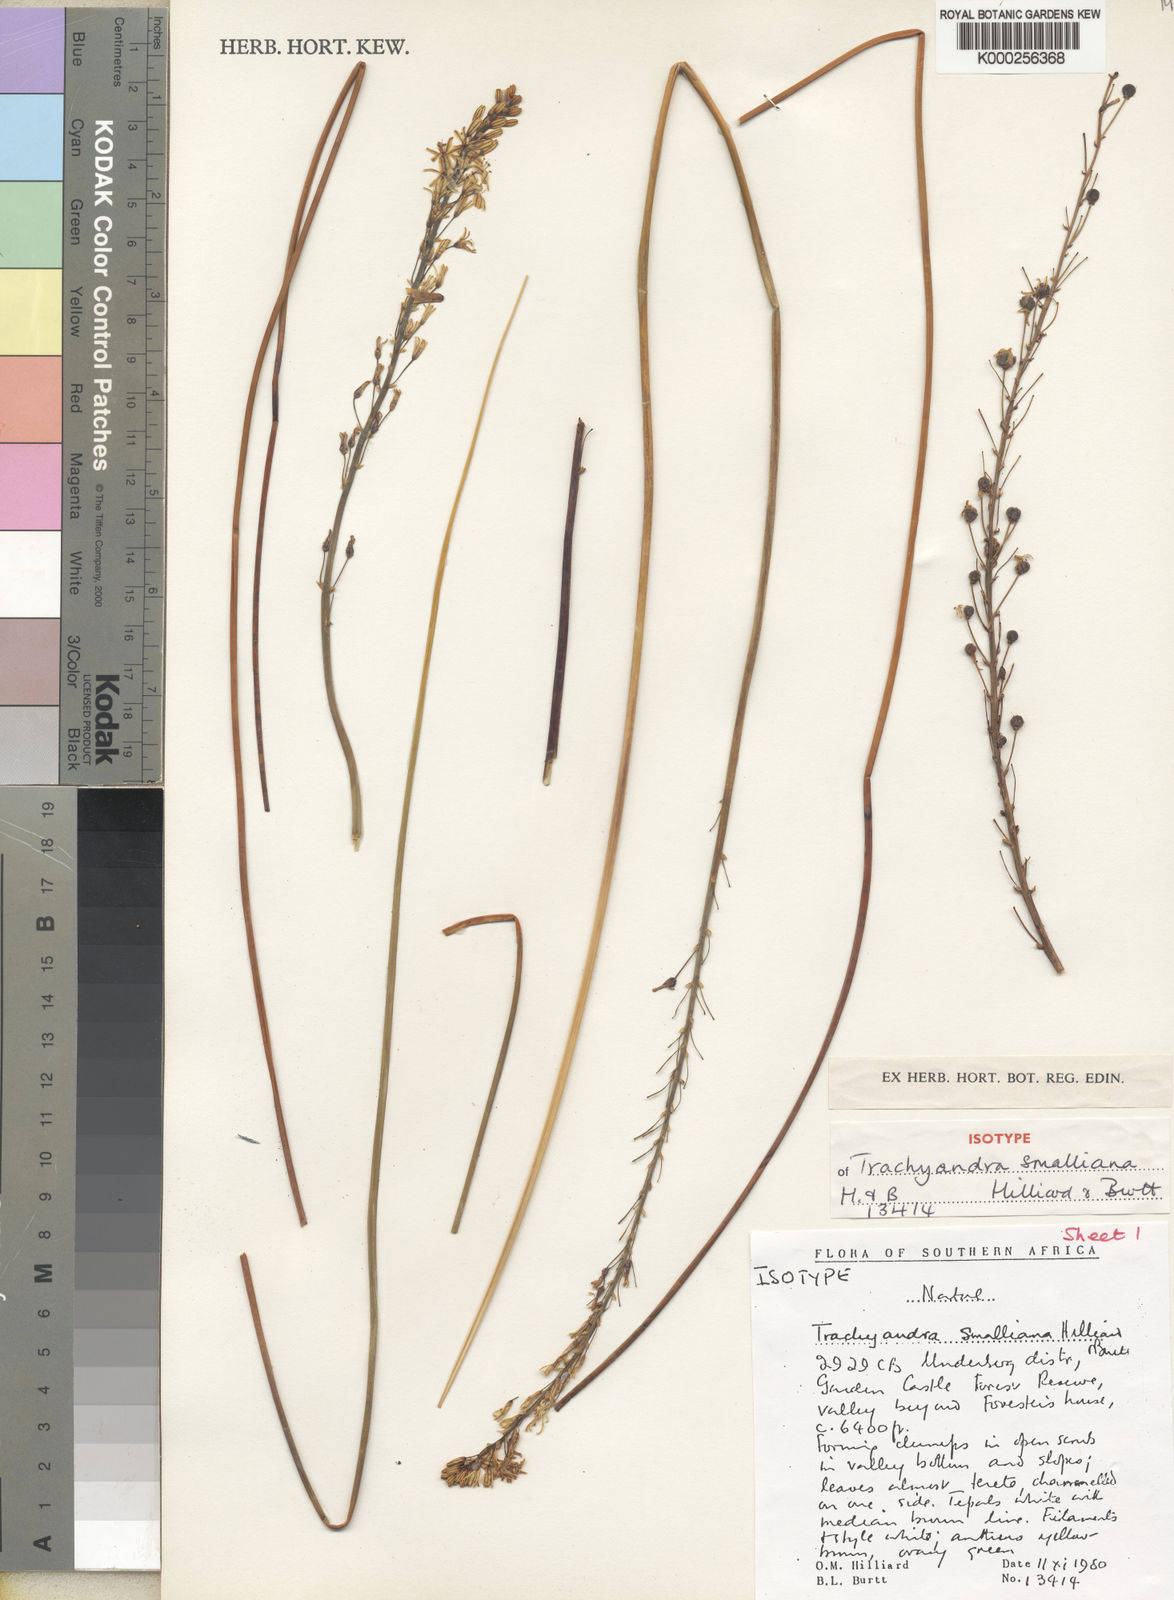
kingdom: Plantae
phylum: Tracheophyta
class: Liliopsida
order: Asparagales
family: Asphodelaceae
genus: Trachyandra
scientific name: Trachyandra smalliana
